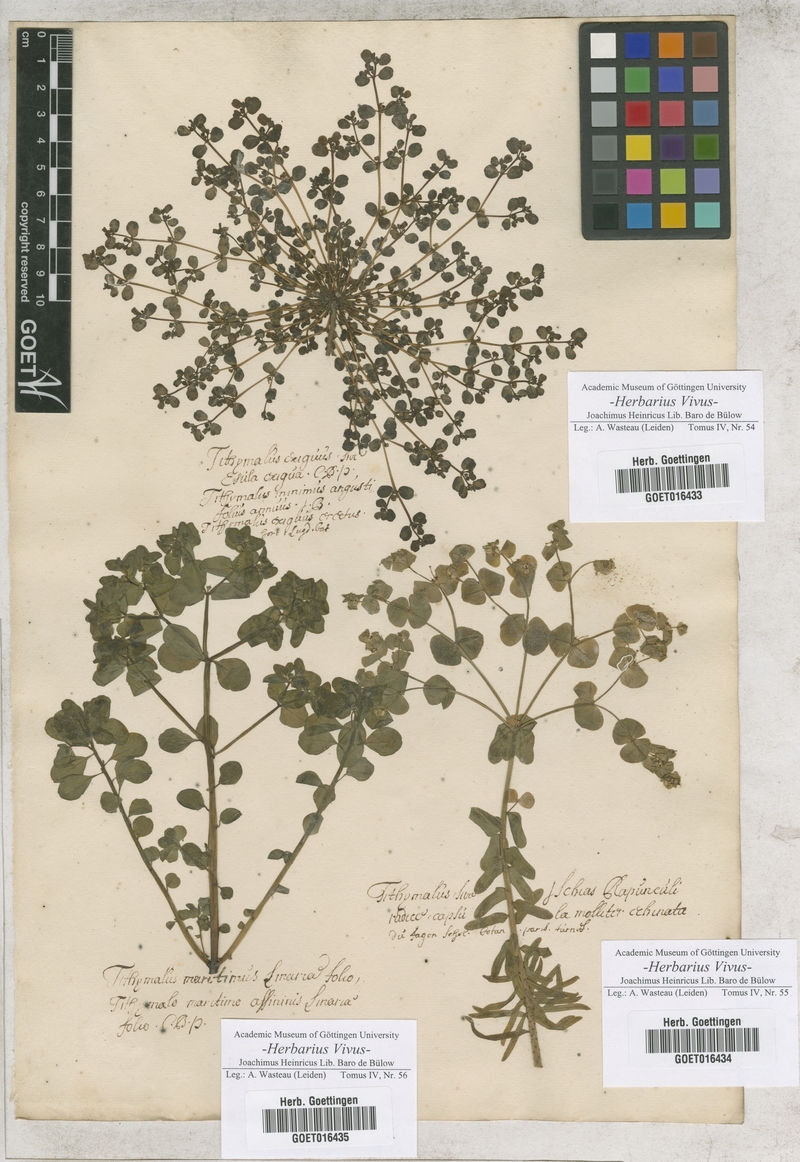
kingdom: Plantae
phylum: Tracheophyta
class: Magnoliopsida
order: Malpighiales
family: Euphorbiaceae
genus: Euphorbia
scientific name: Euphorbia exigua
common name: Dwarf spurge
